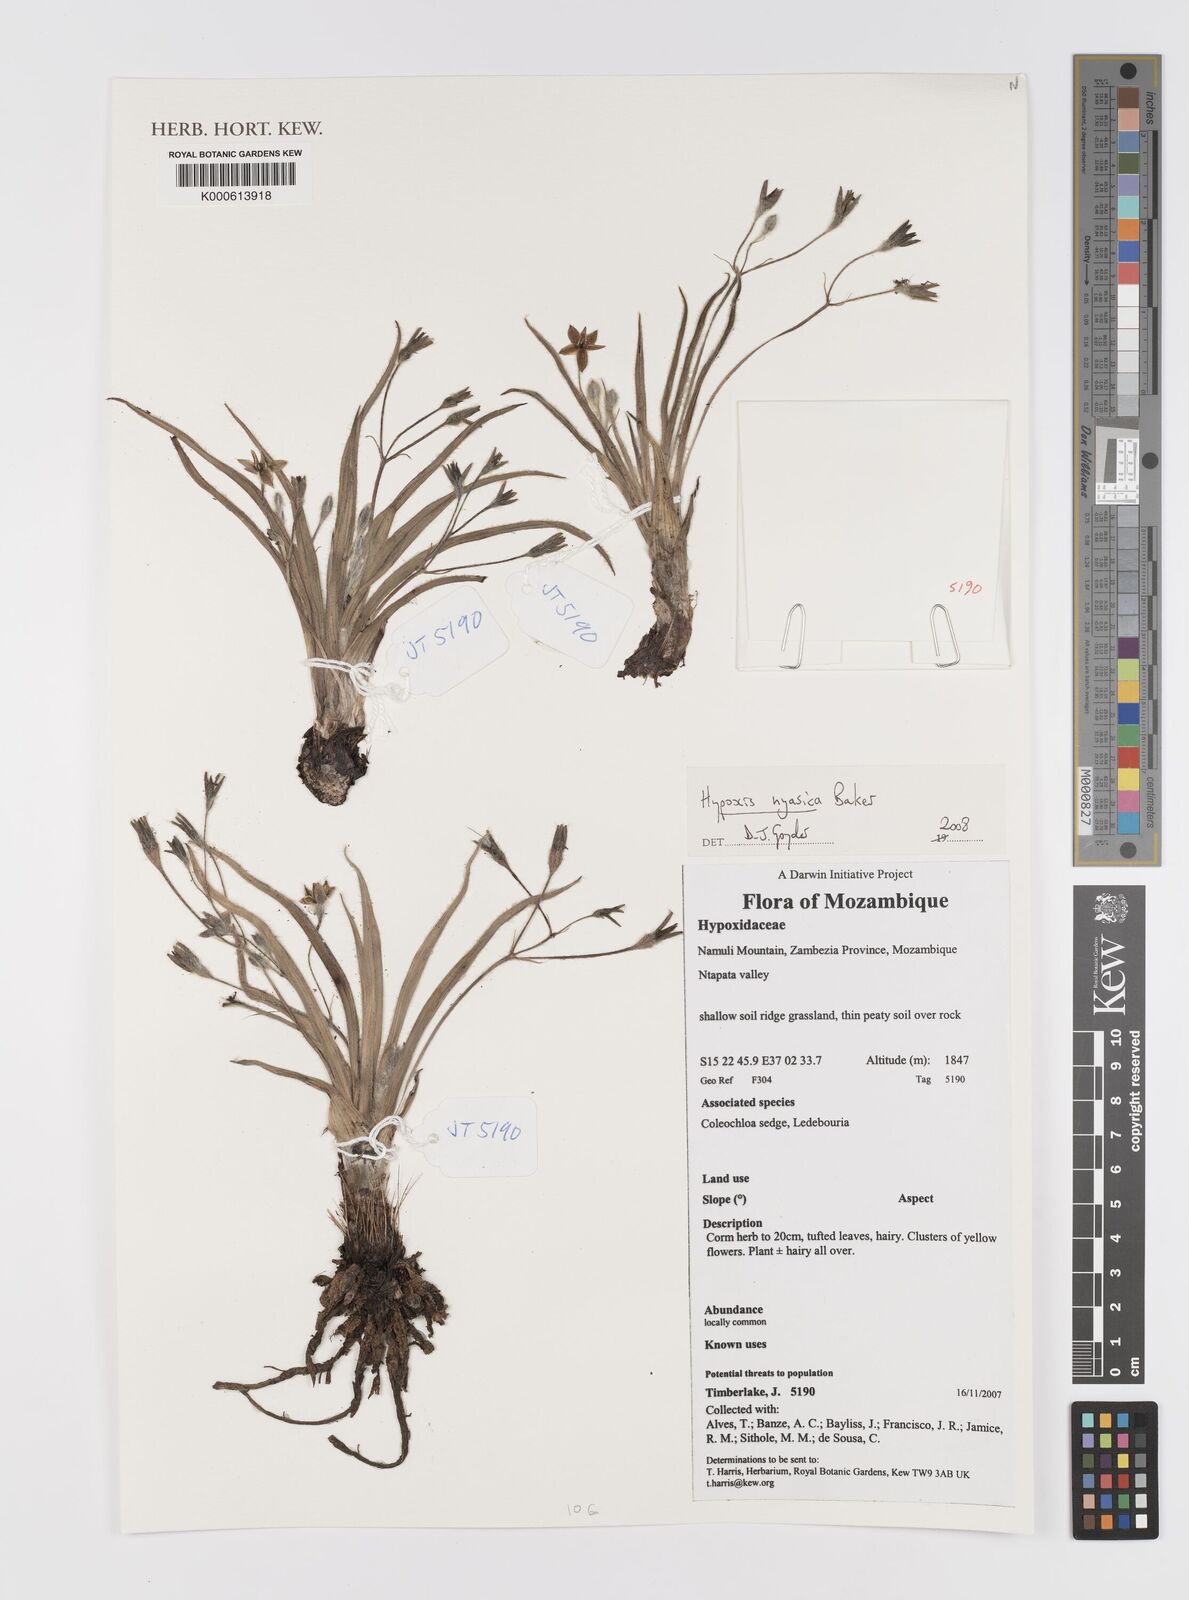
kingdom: Plantae
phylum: Tracheophyta
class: Liliopsida
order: Asparagales
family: Hypoxidaceae
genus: Hypoxis
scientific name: Hypoxis nyasica
